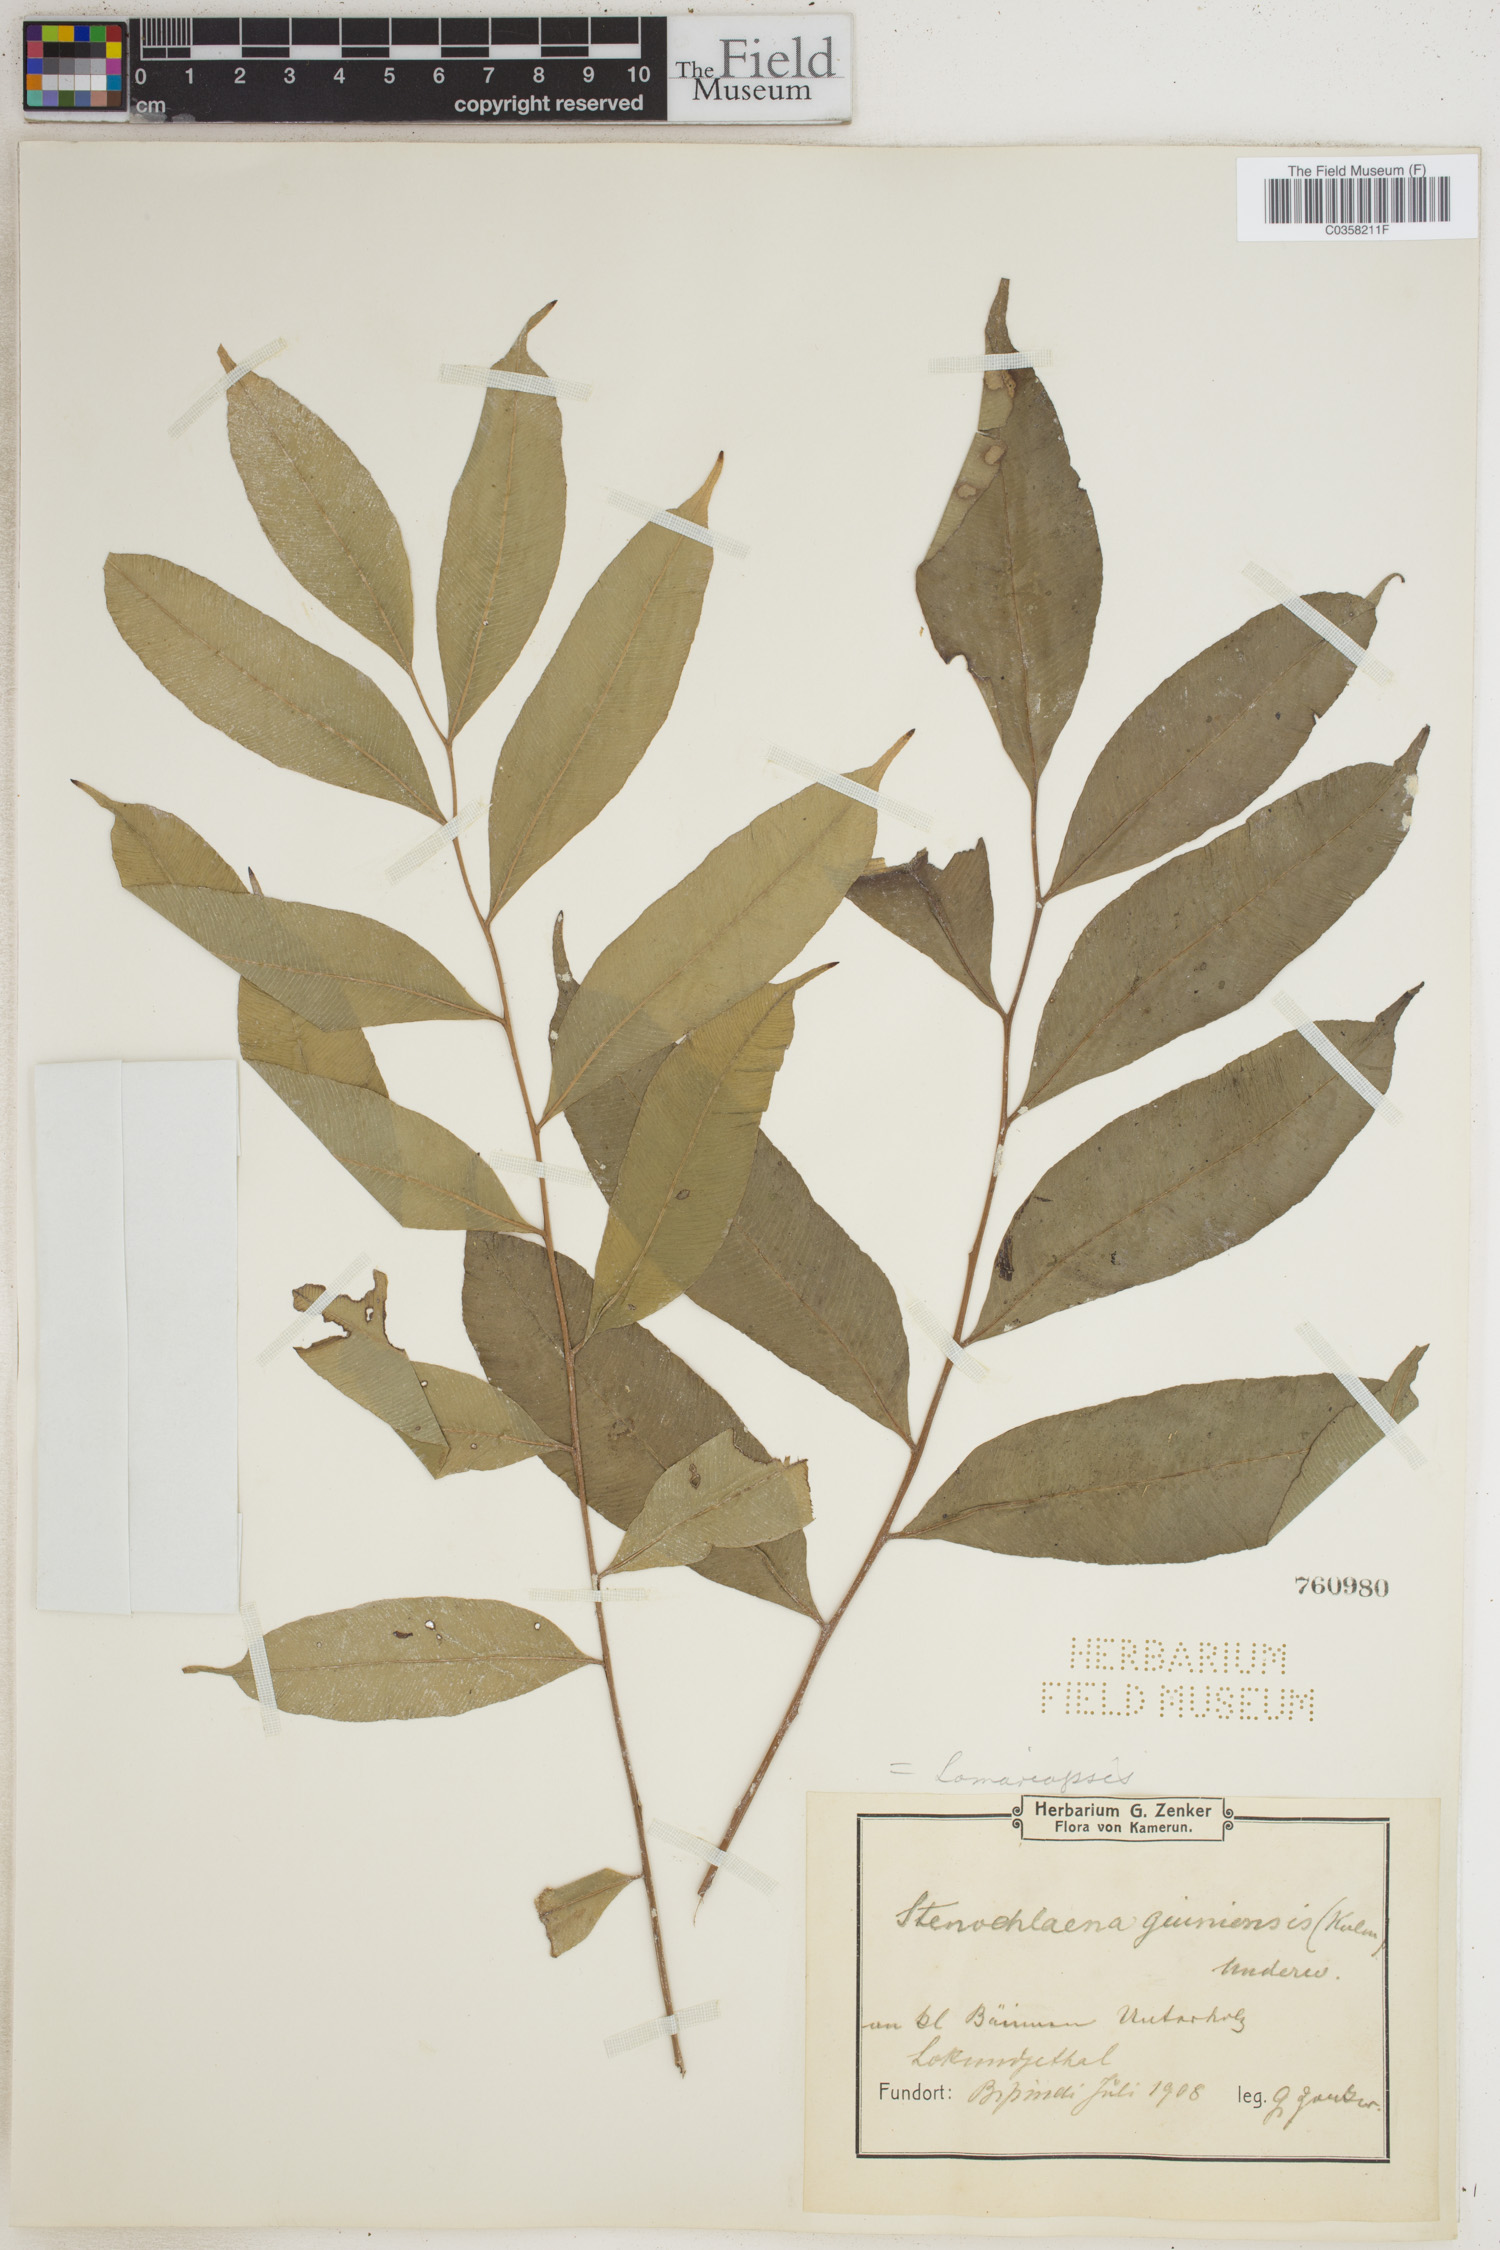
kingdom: Plantae
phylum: Tracheophyta
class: Polypodiopsida
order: Polypodiales
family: Lomariopsidaceae
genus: Lomariopsis
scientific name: Lomariopsis guineensis
